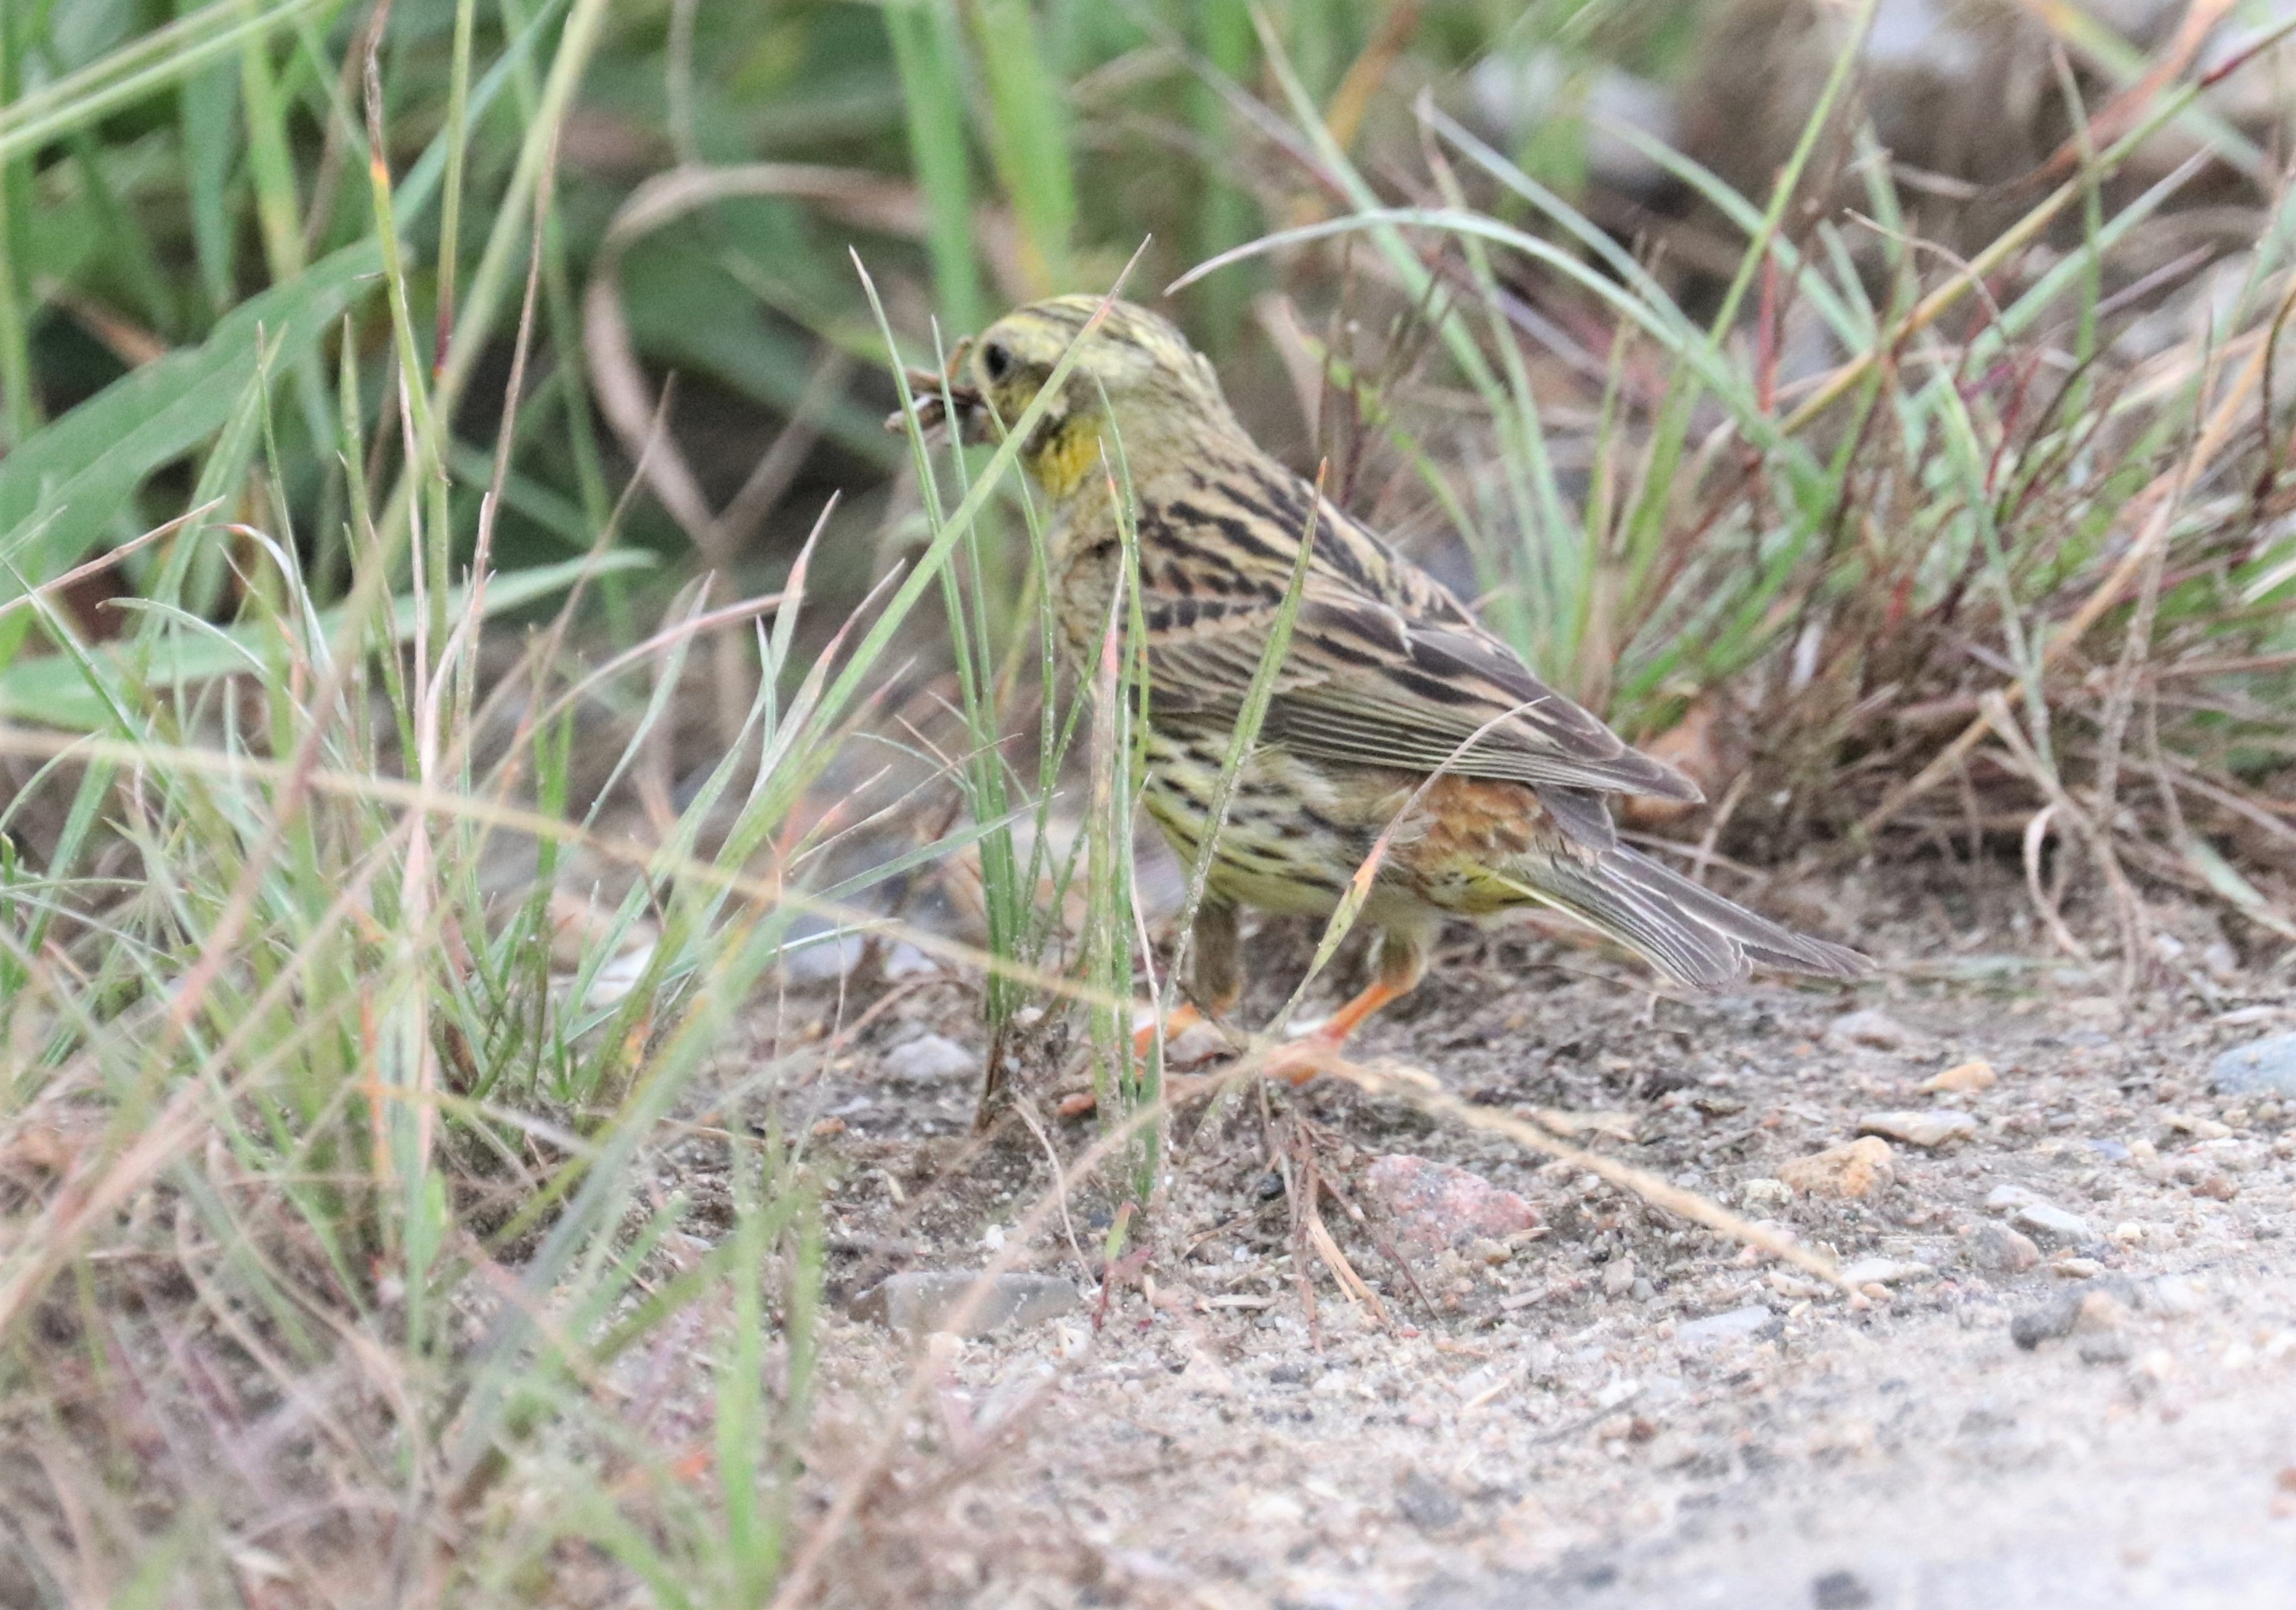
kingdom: Animalia
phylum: Chordata
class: Aves
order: Passeriformes
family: Emberizidae
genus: Emberiza
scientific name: Emberiza citrinella
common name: Gulspurv
